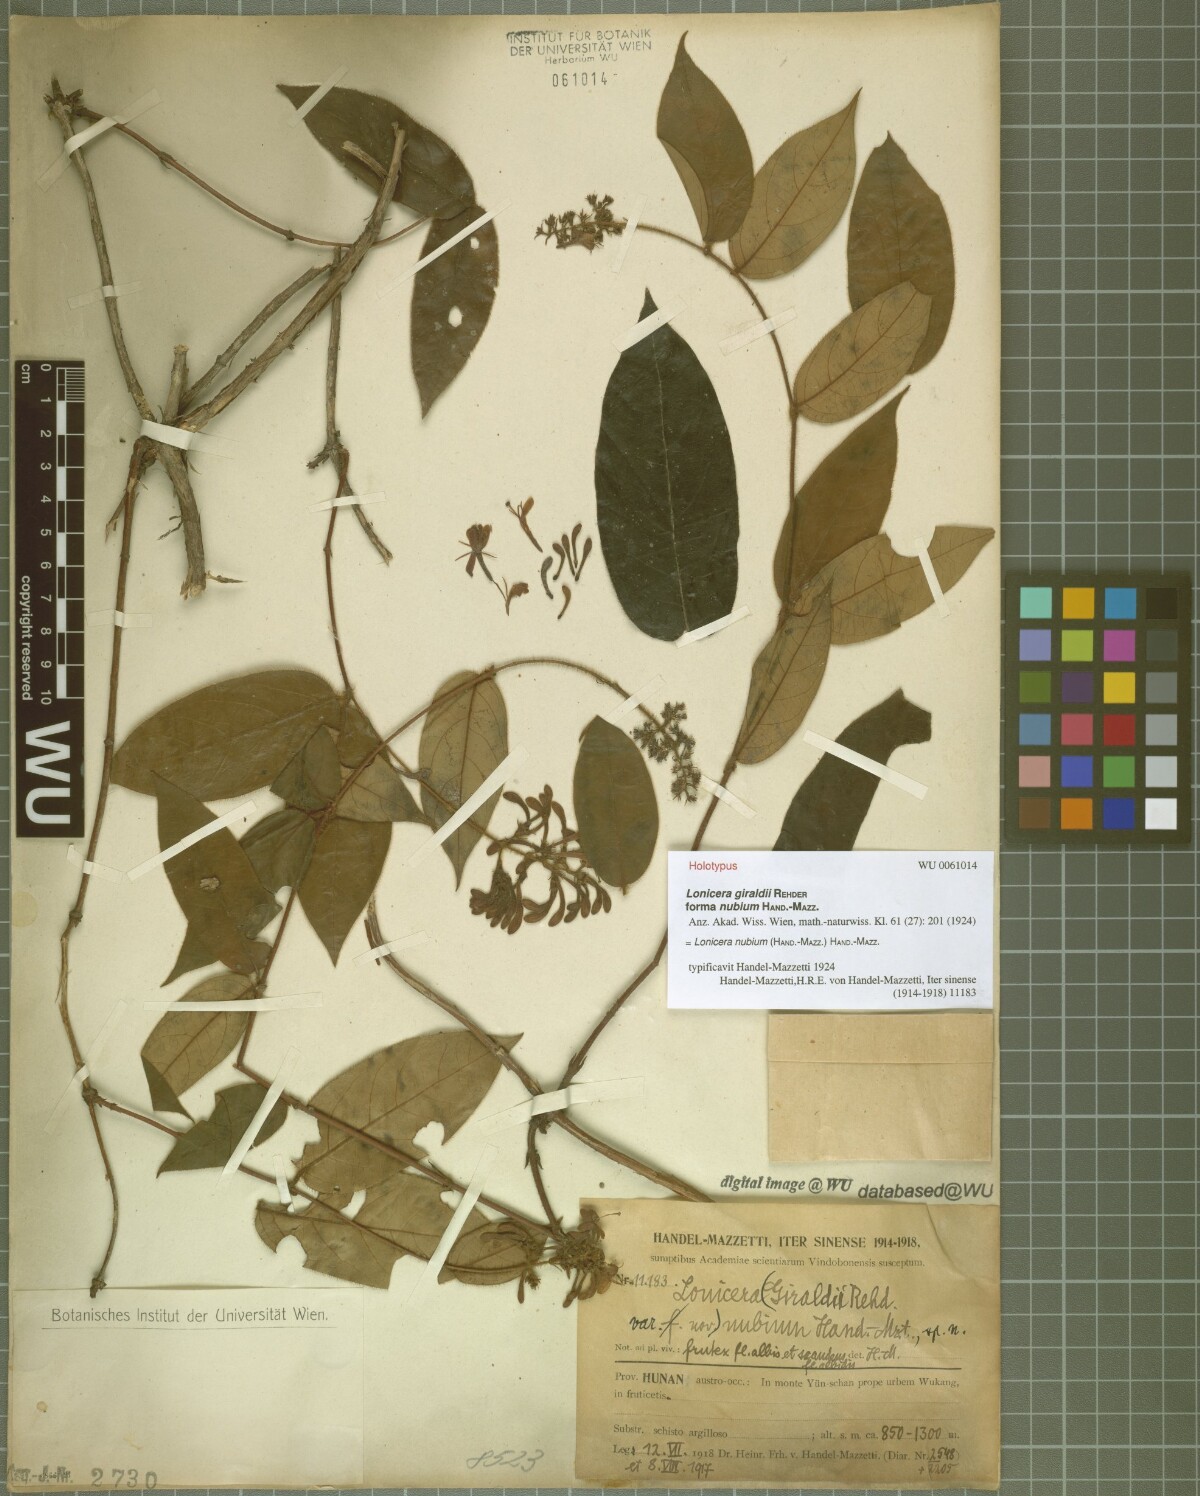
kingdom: Plantae
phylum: Tracheophyta
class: Magnoliopsida
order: Dipsacales
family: Caprifoliaceae
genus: Lonicera
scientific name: Lonicera ferruginea
